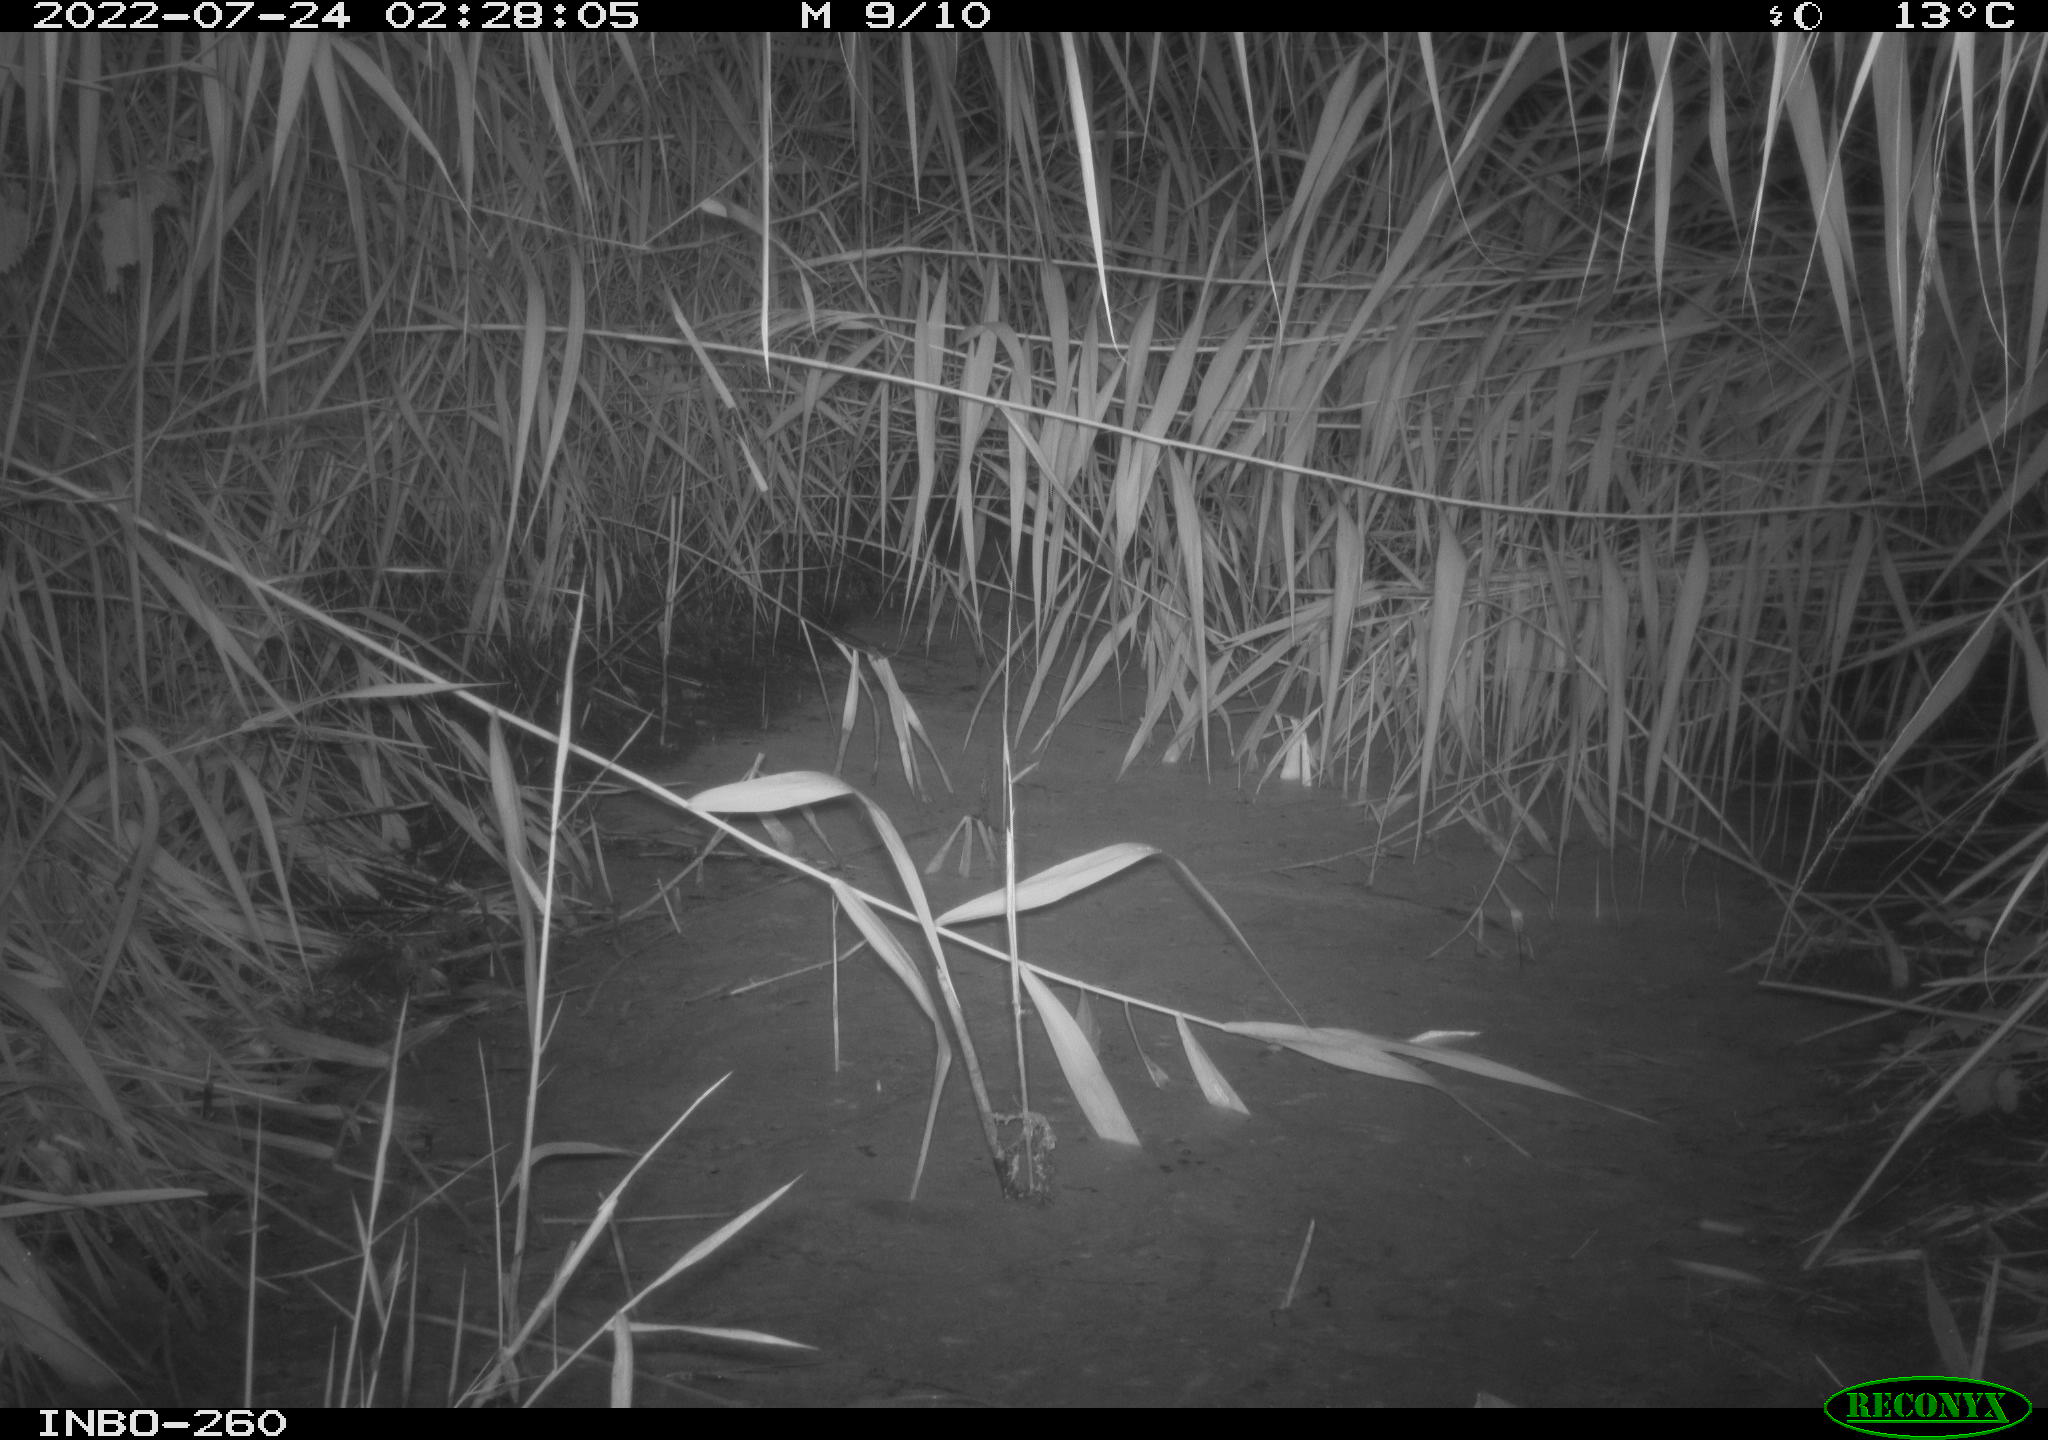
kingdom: Animalia
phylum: Chordata
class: Mammalia
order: Rodentia
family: Muridae
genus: Rattus
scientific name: Rattus norvegicus
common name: Brown rat
